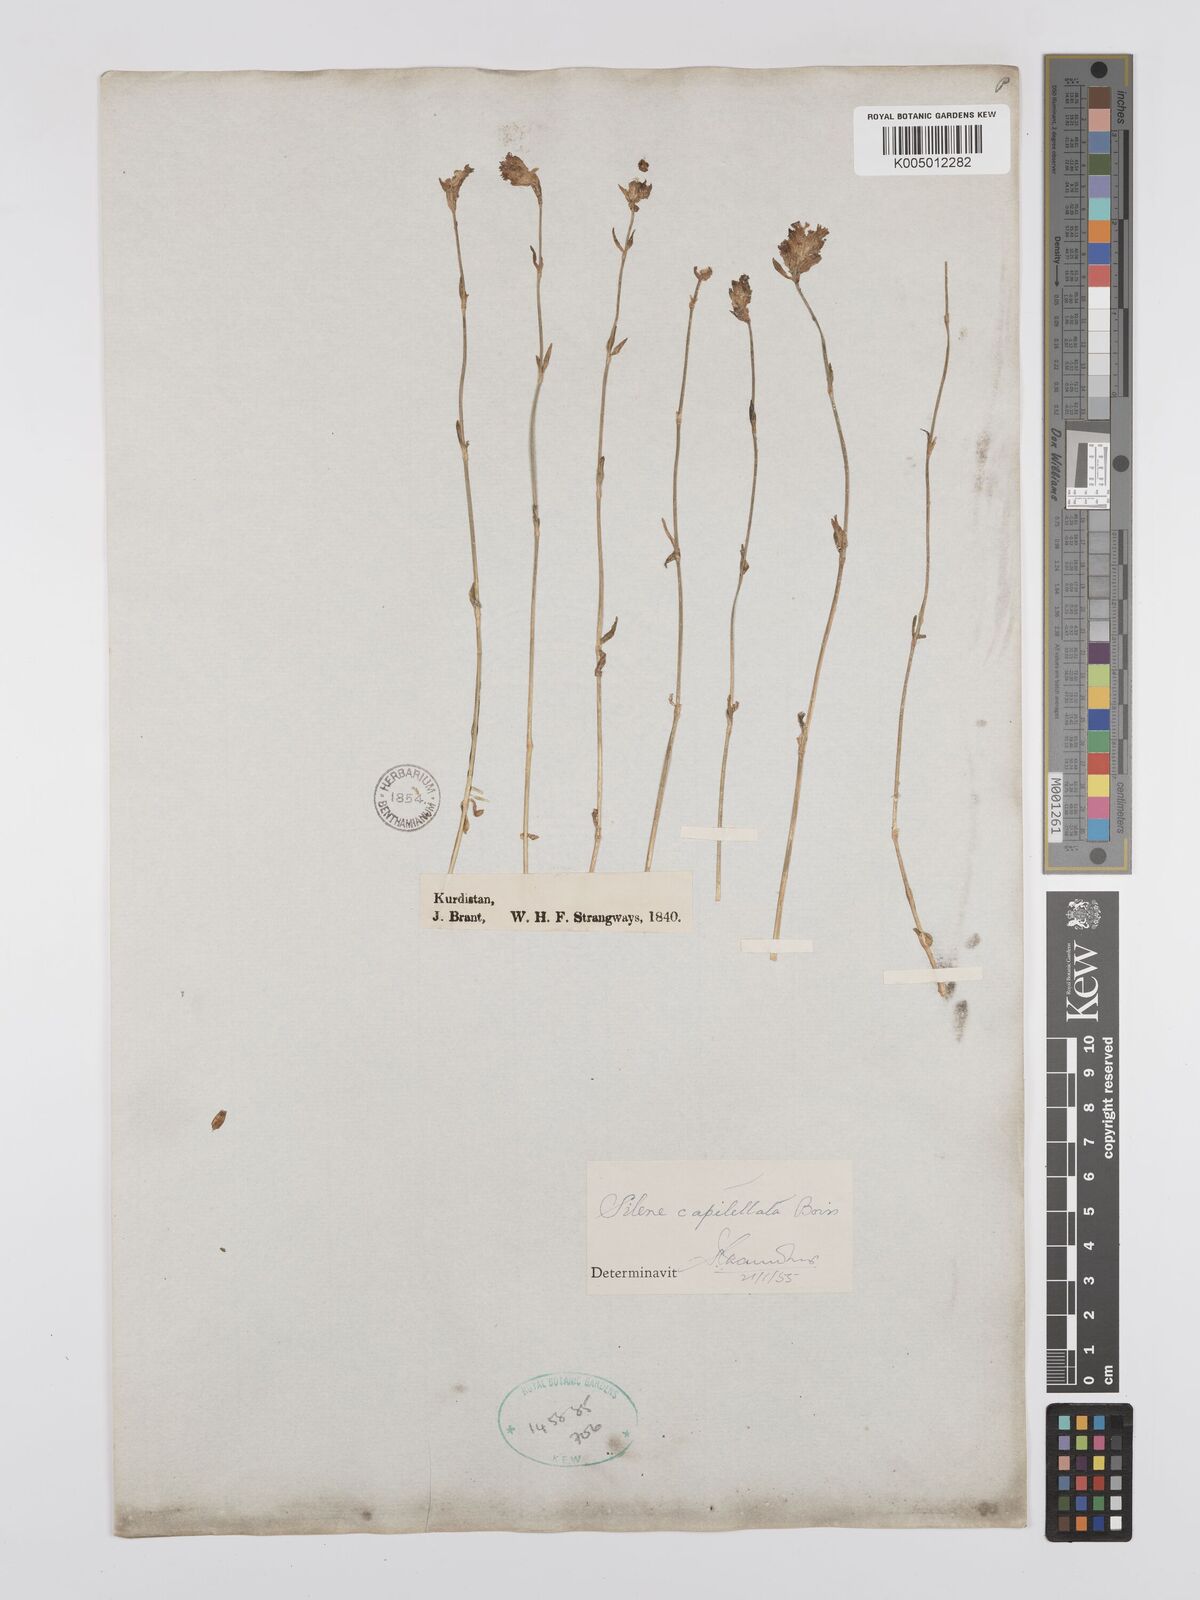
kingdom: Plantae
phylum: Tracheophyta
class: Magnoliopsida
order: Caryophyllales
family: Caryophyllaceae
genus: Silene
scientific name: Silene capitellata
